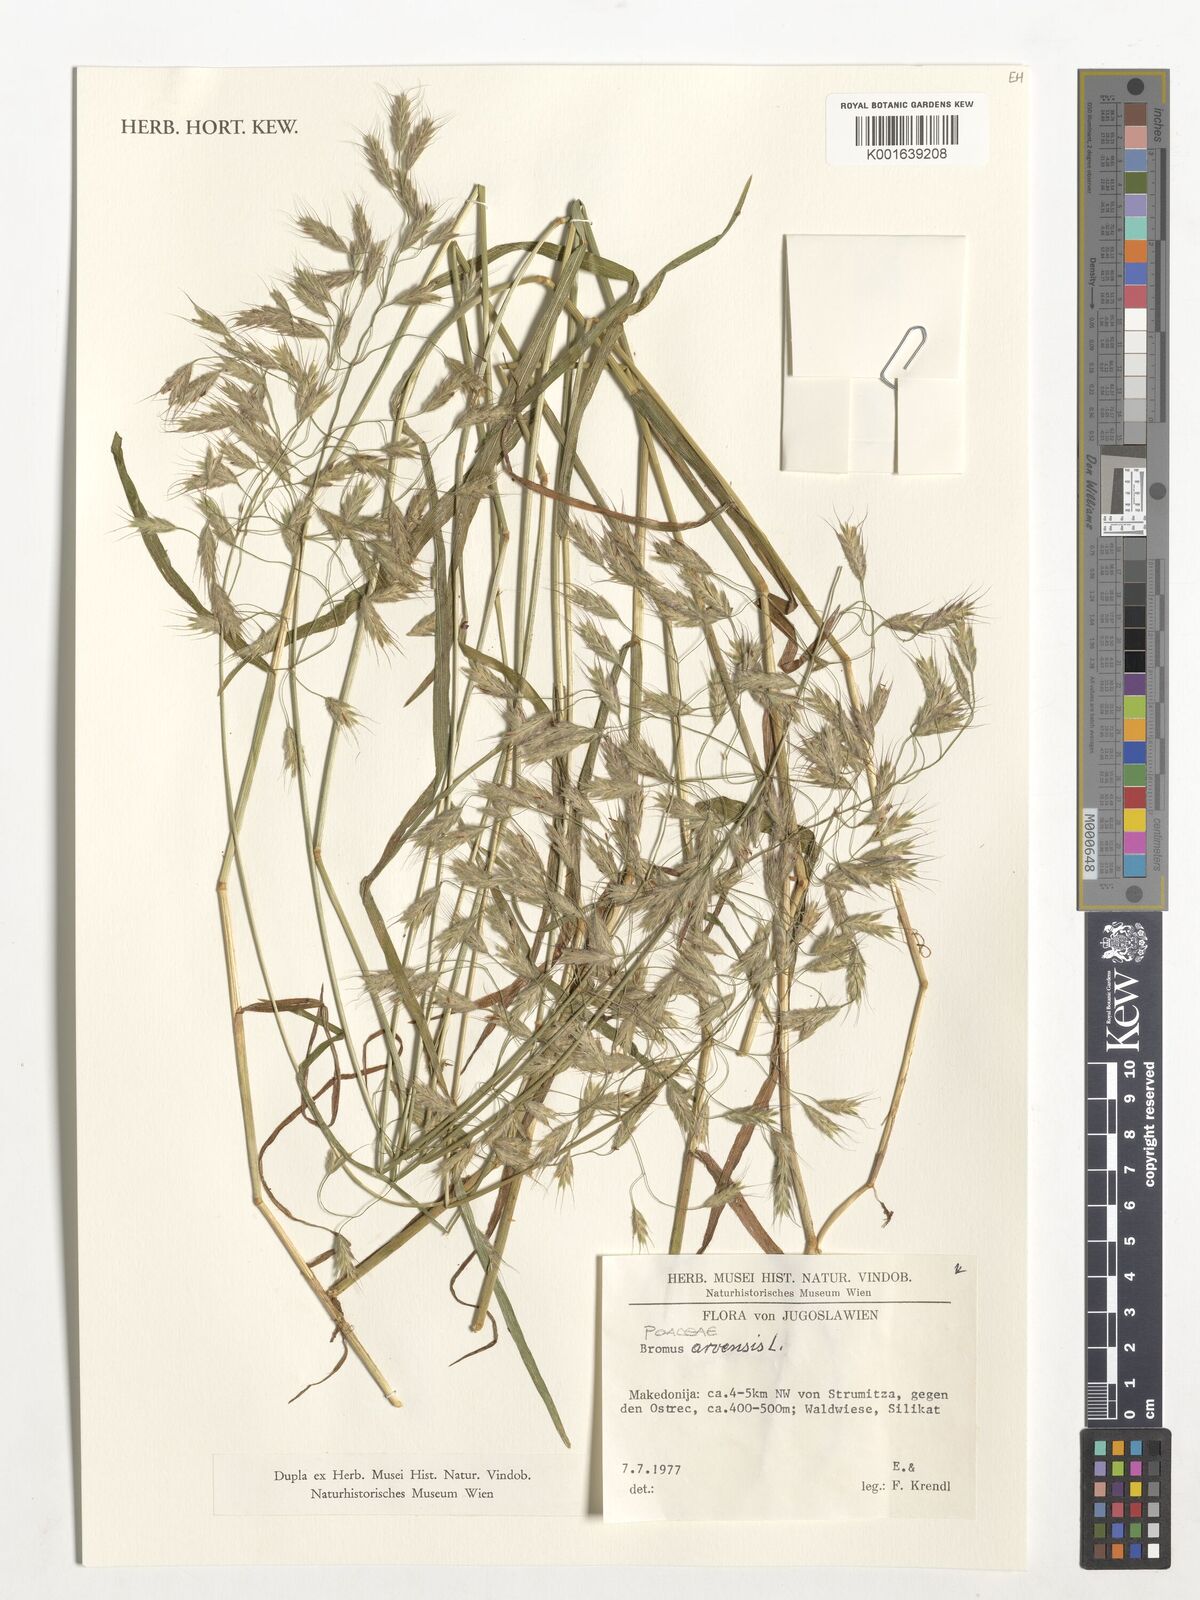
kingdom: Plantae
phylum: Tracheophyta
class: Liliopsida
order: Poales
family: Poaceae
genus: Bromus
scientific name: Bromus arvensis
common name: Field brome
